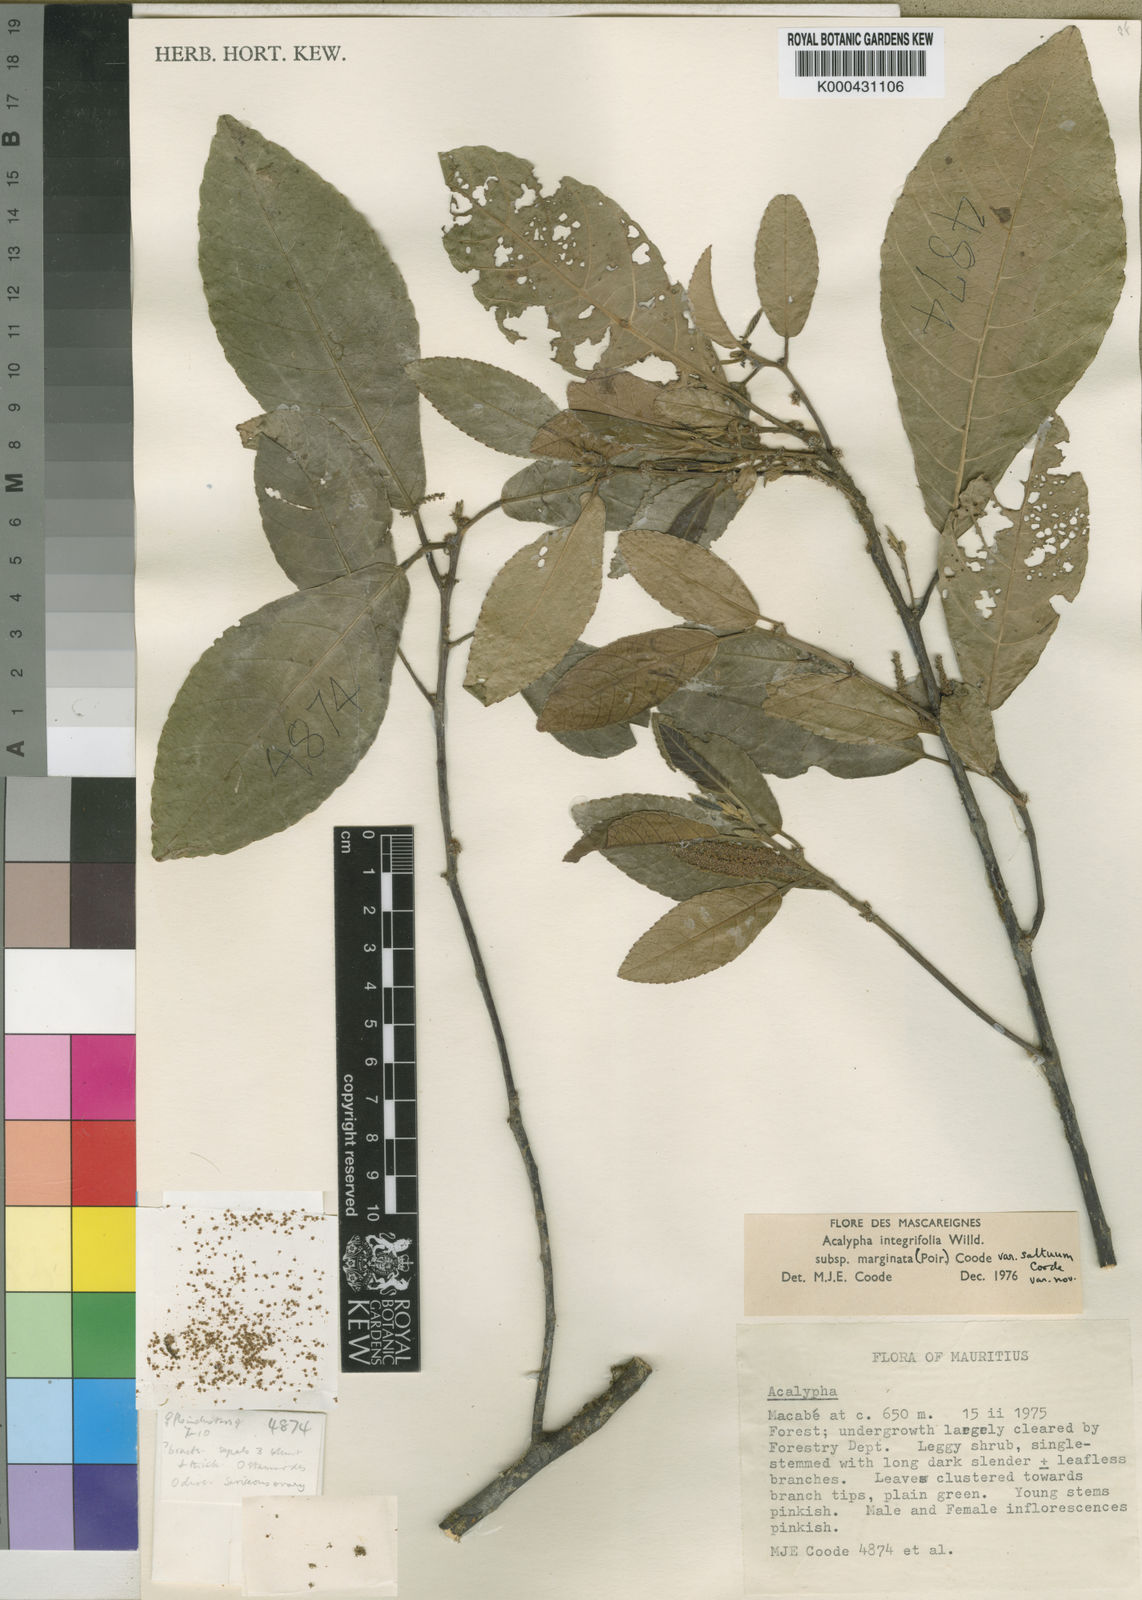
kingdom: Plantae
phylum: Tracheophyta
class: Magnoliopsida
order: Malpighiales
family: Euphorbiaceae
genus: Acalypha
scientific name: Acalypha marginata
